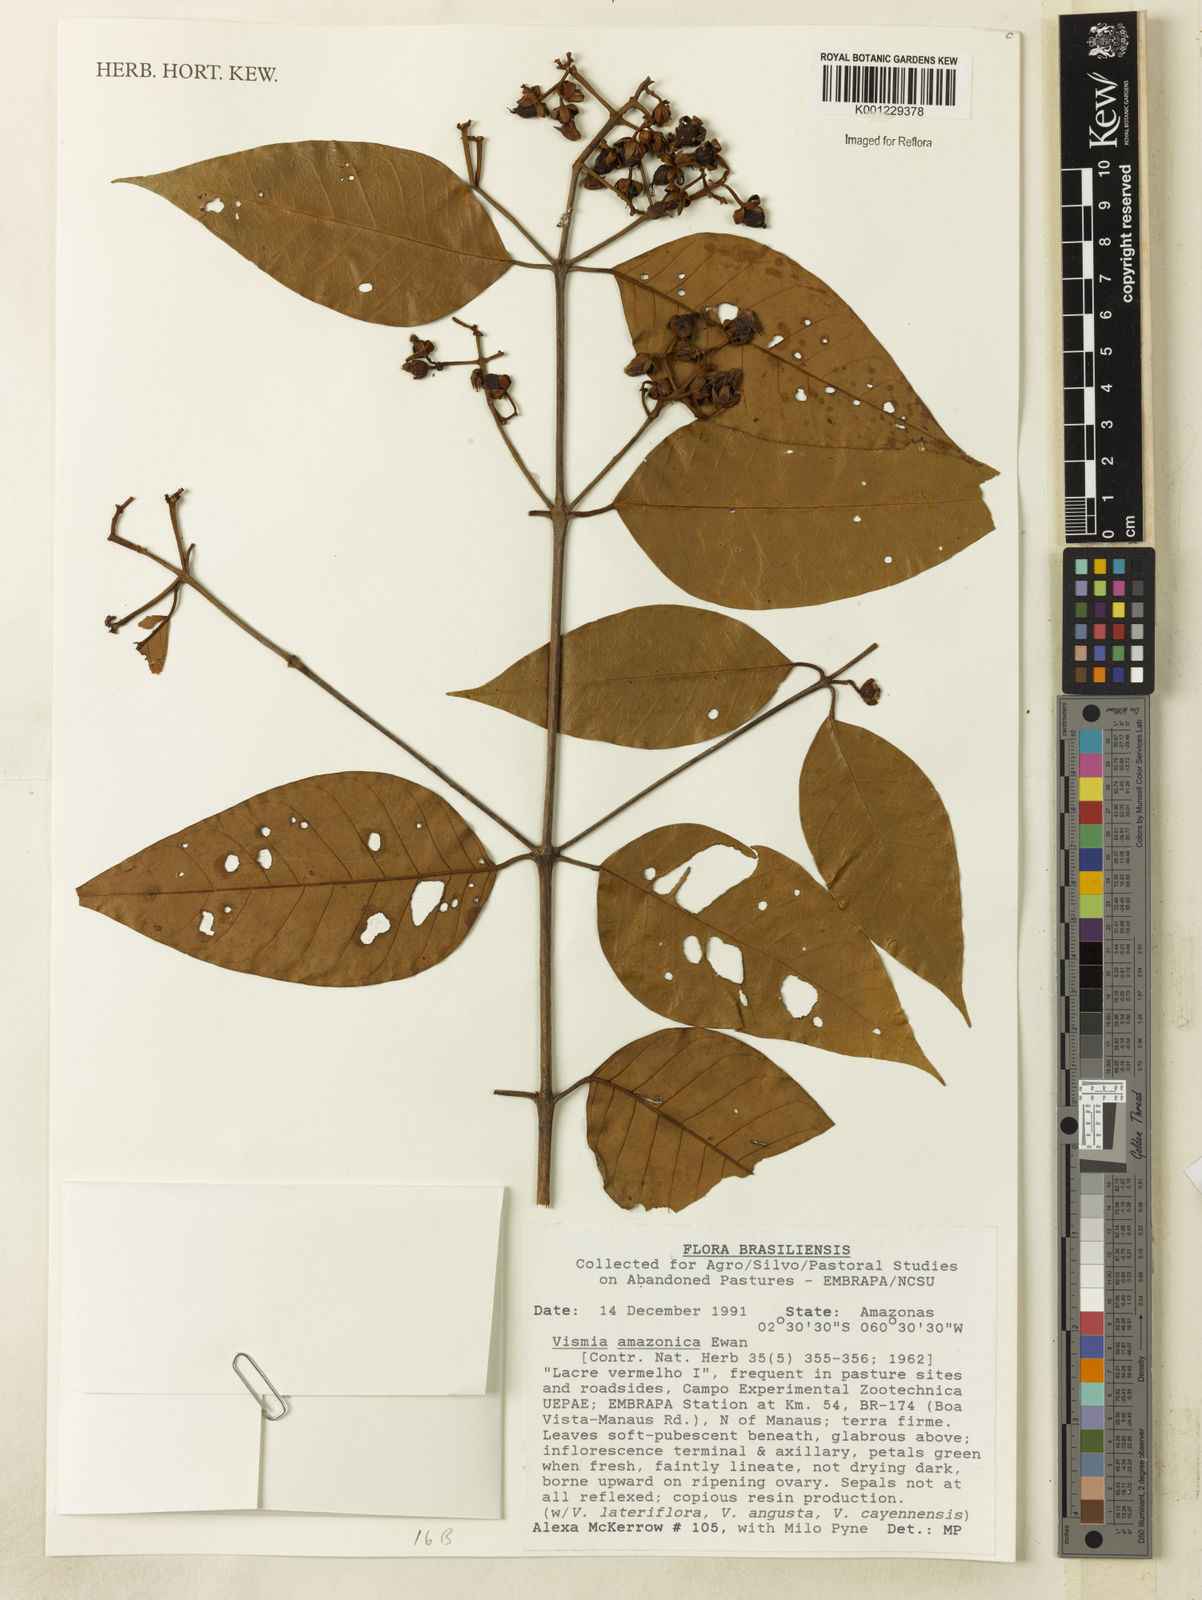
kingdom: Plantae
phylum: Tracheophyta
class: Magnoliopsida
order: Malpighiales
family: Hypericaceae
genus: Vismia
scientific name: Vismia gracilis
